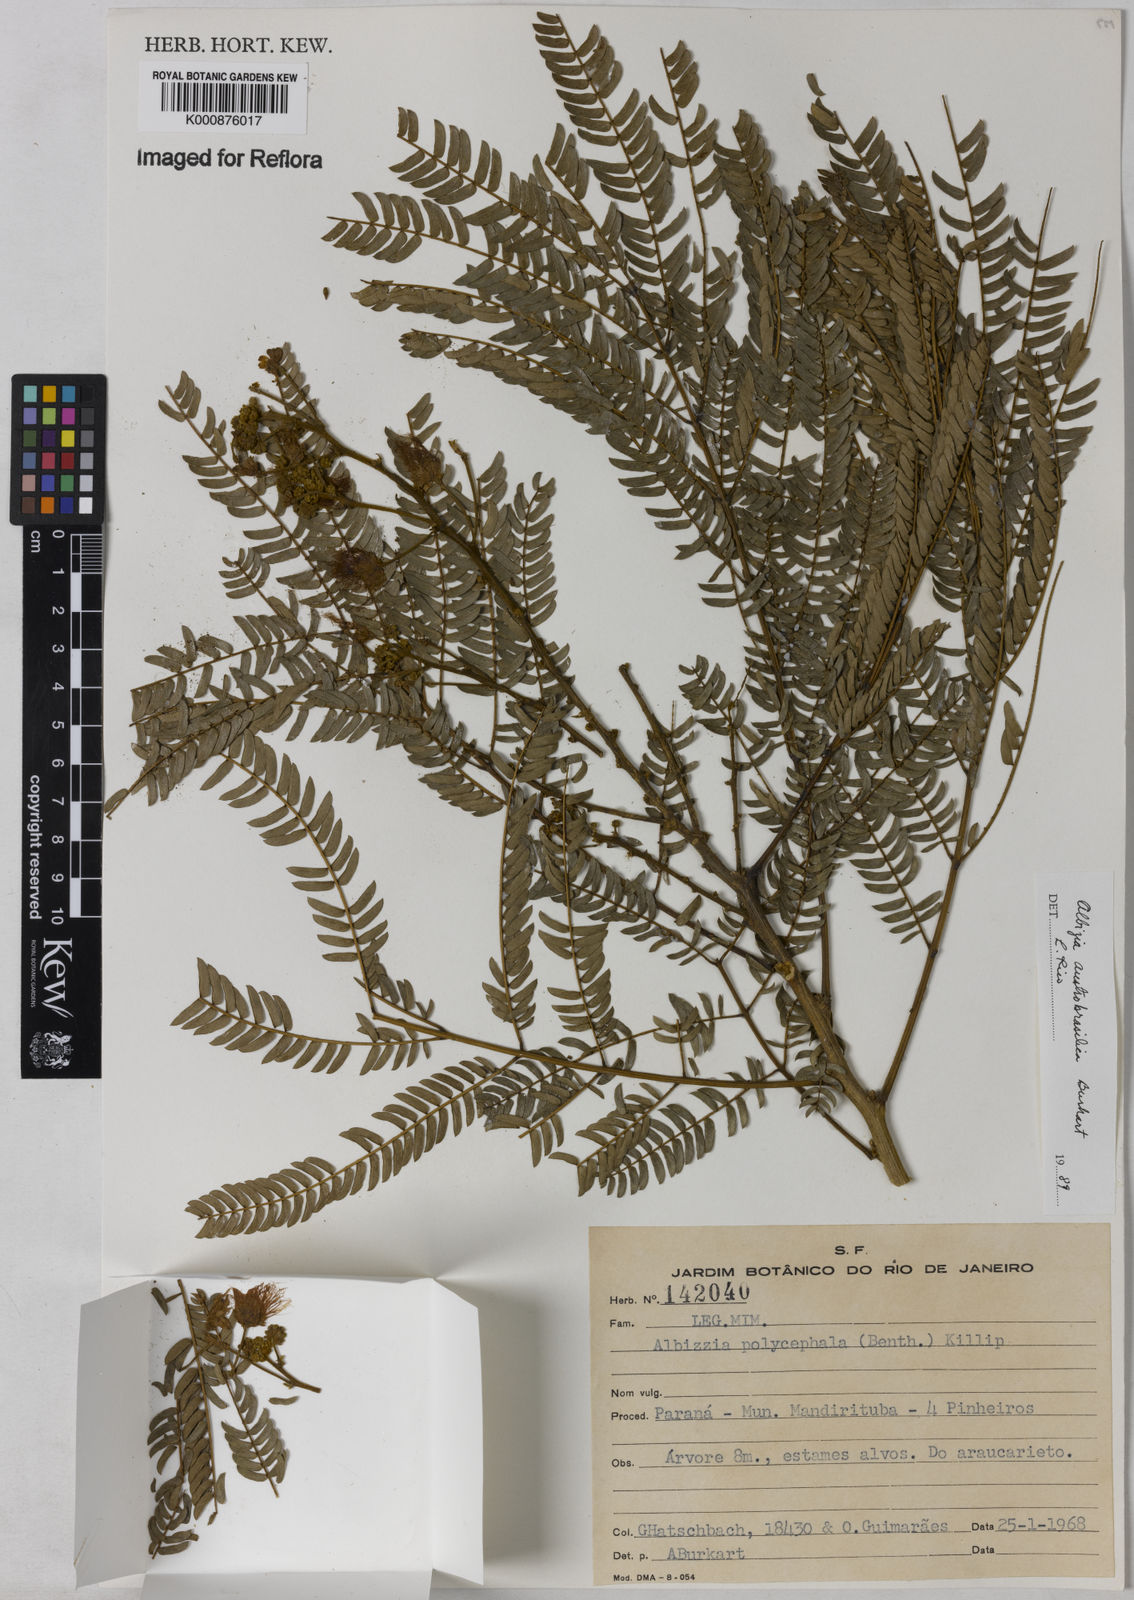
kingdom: Plantae
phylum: Tracheophyta
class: Magnoliopsida
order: Fabales
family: Fabaceae
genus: Albizia
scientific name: Albizia edwallii
